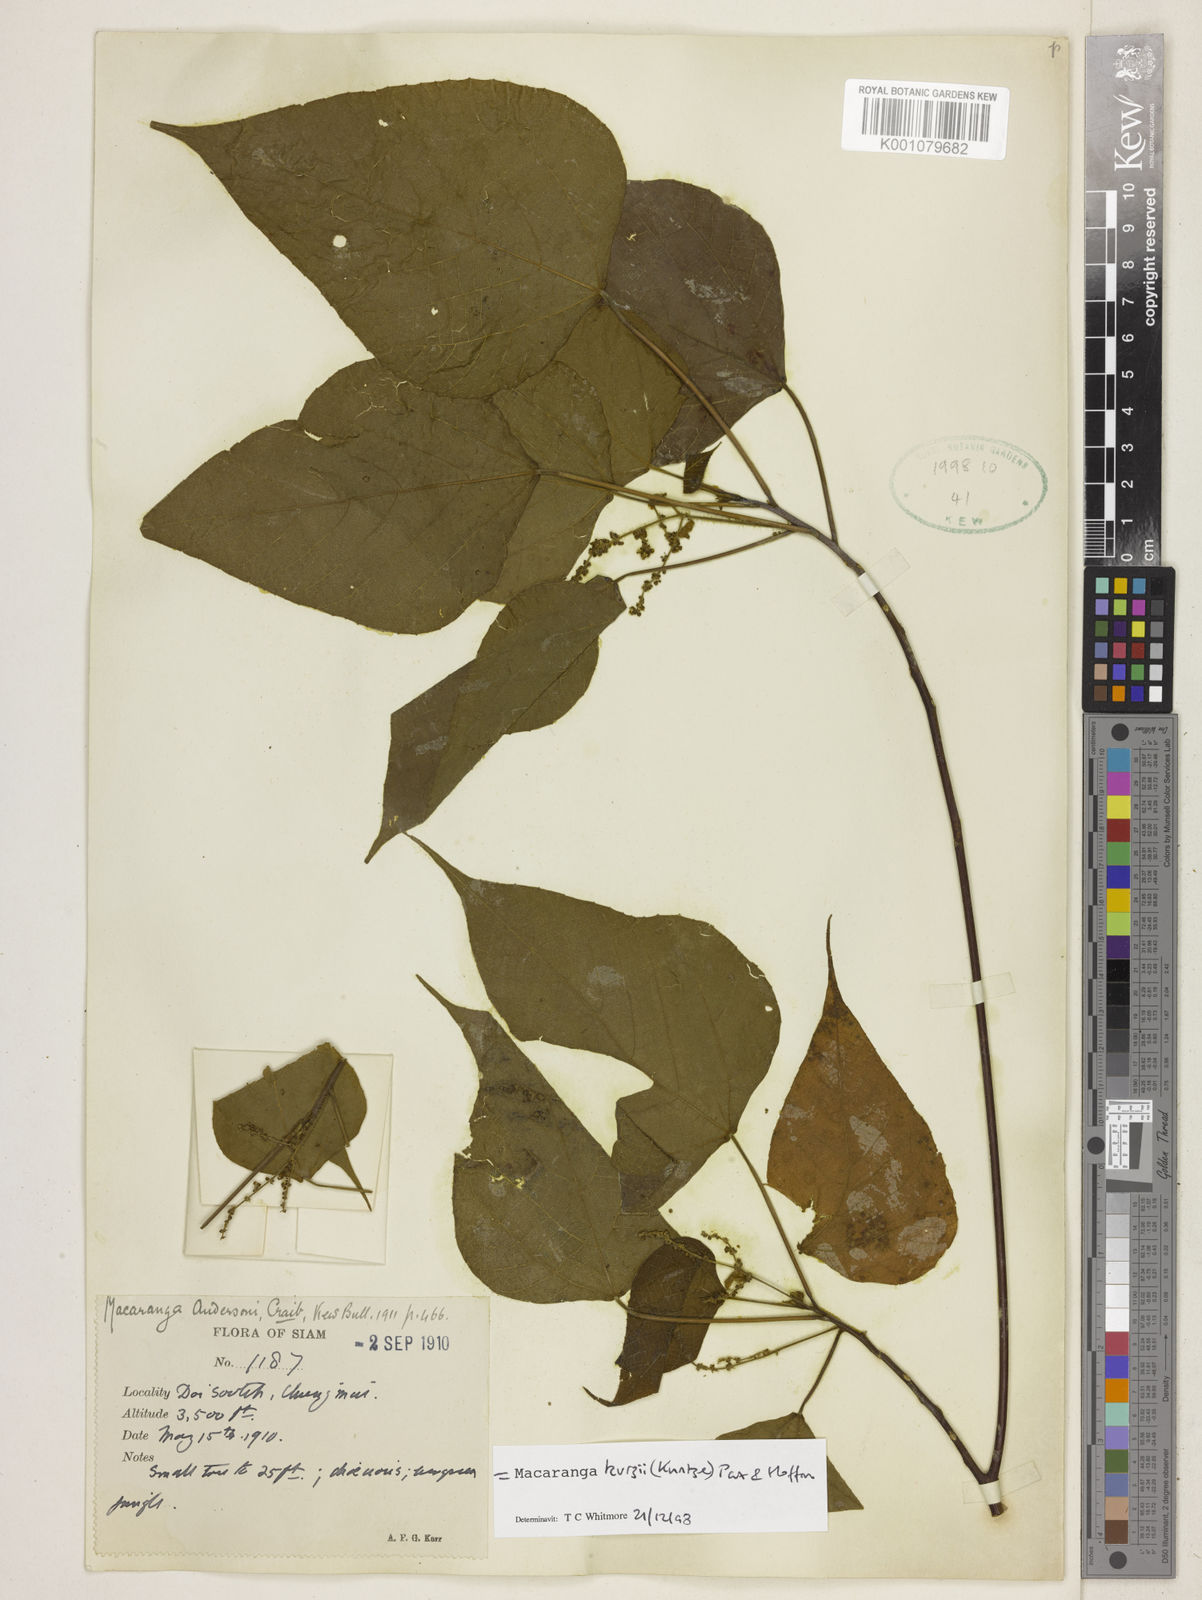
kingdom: Plantae
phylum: Tracheophyta
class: Magnoliopsida
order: Malpighiales
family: Euphorbiaceae
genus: Macaranga
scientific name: Macaranga kurzii
